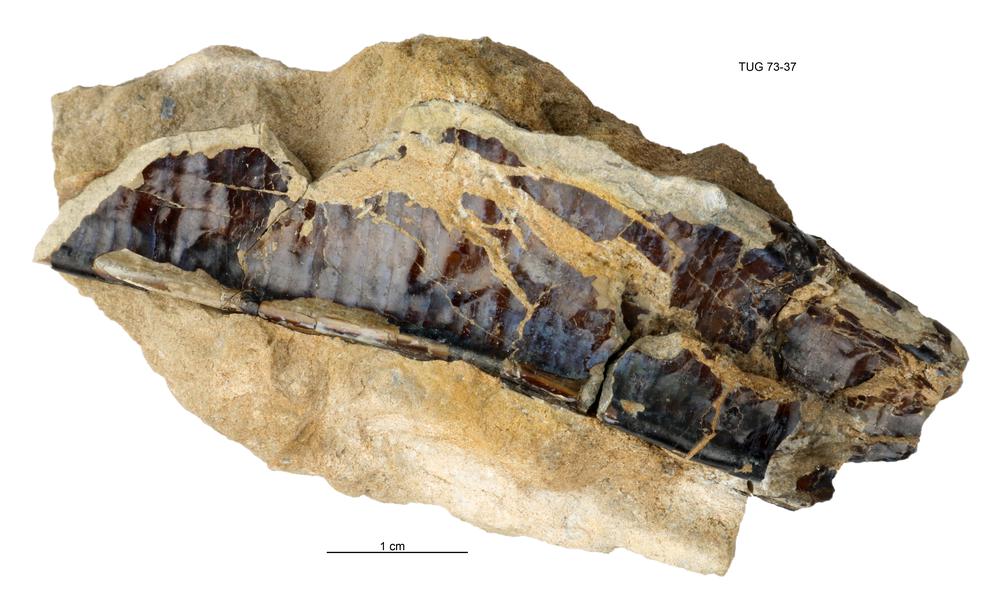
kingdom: Animalia
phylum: Cnidaria
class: Scyphozoa
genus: Sphenothallus
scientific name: Sphenothallus
